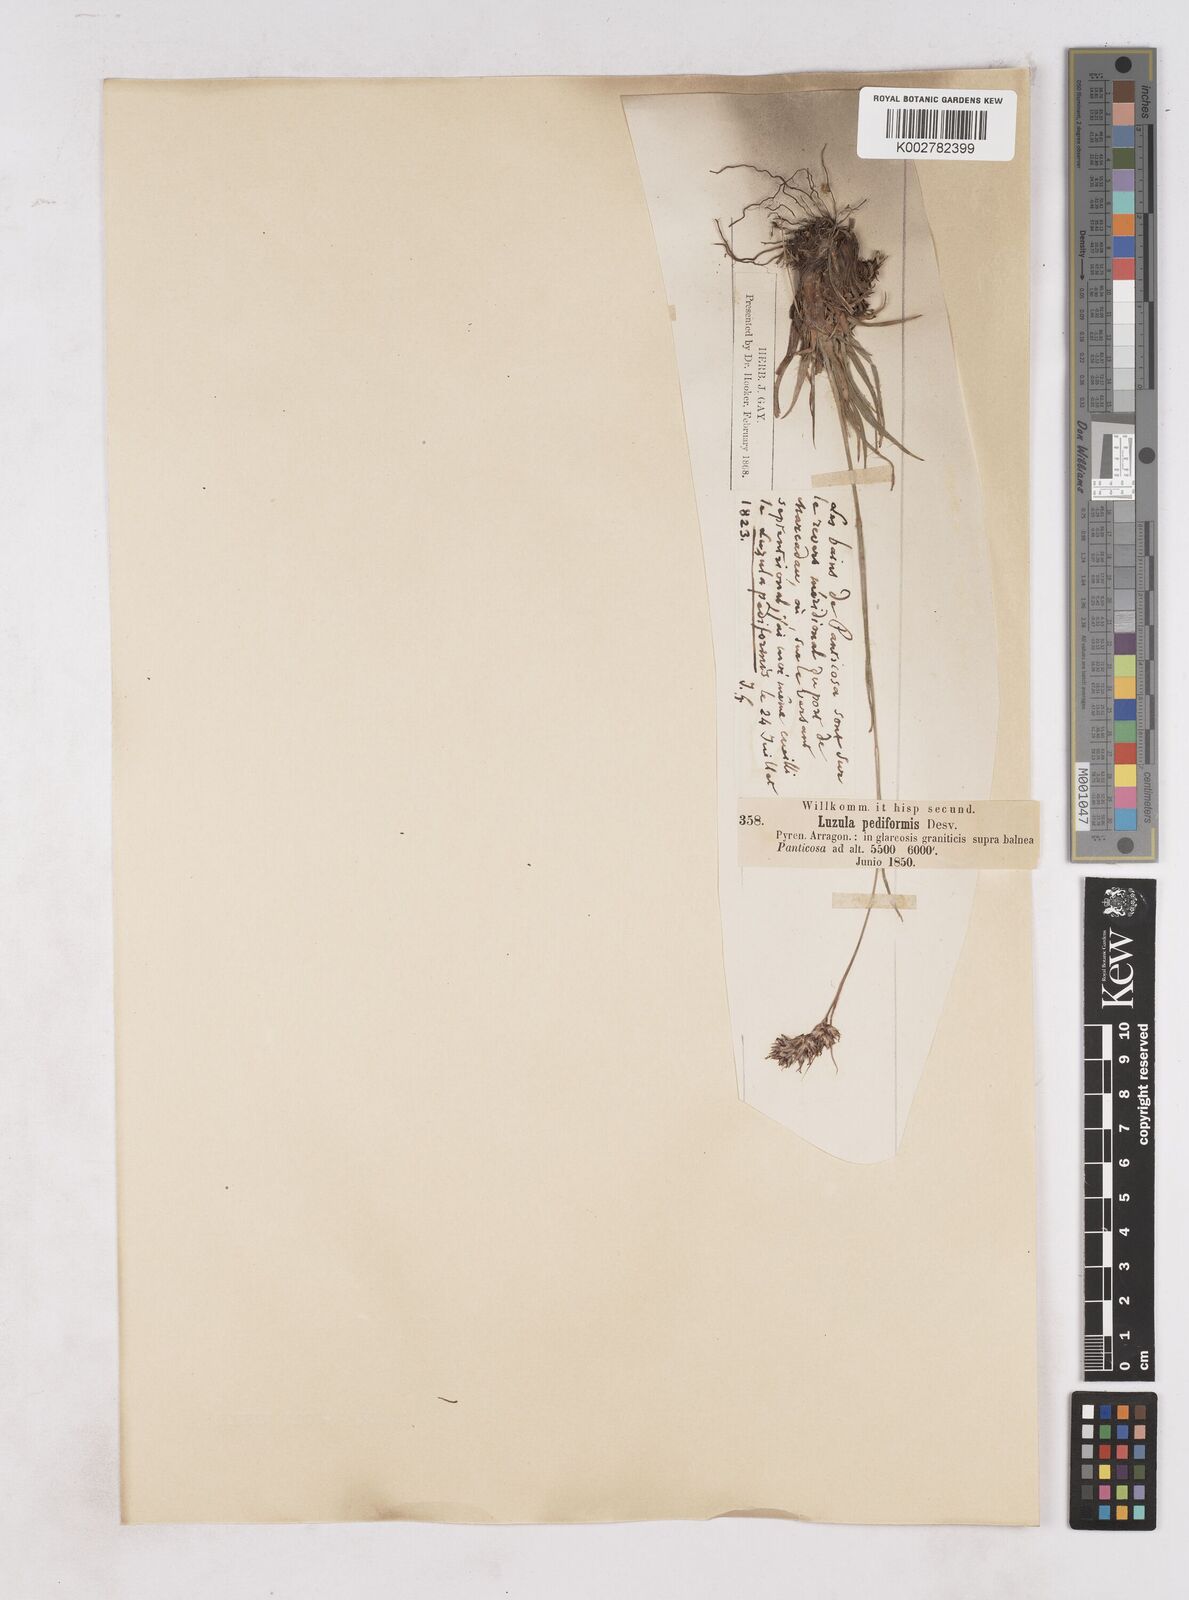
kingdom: Plantae
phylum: Tracheophyta
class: Liliopsida
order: Poales
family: Juncaceae
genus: Luzula
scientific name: Luzula pediformis
